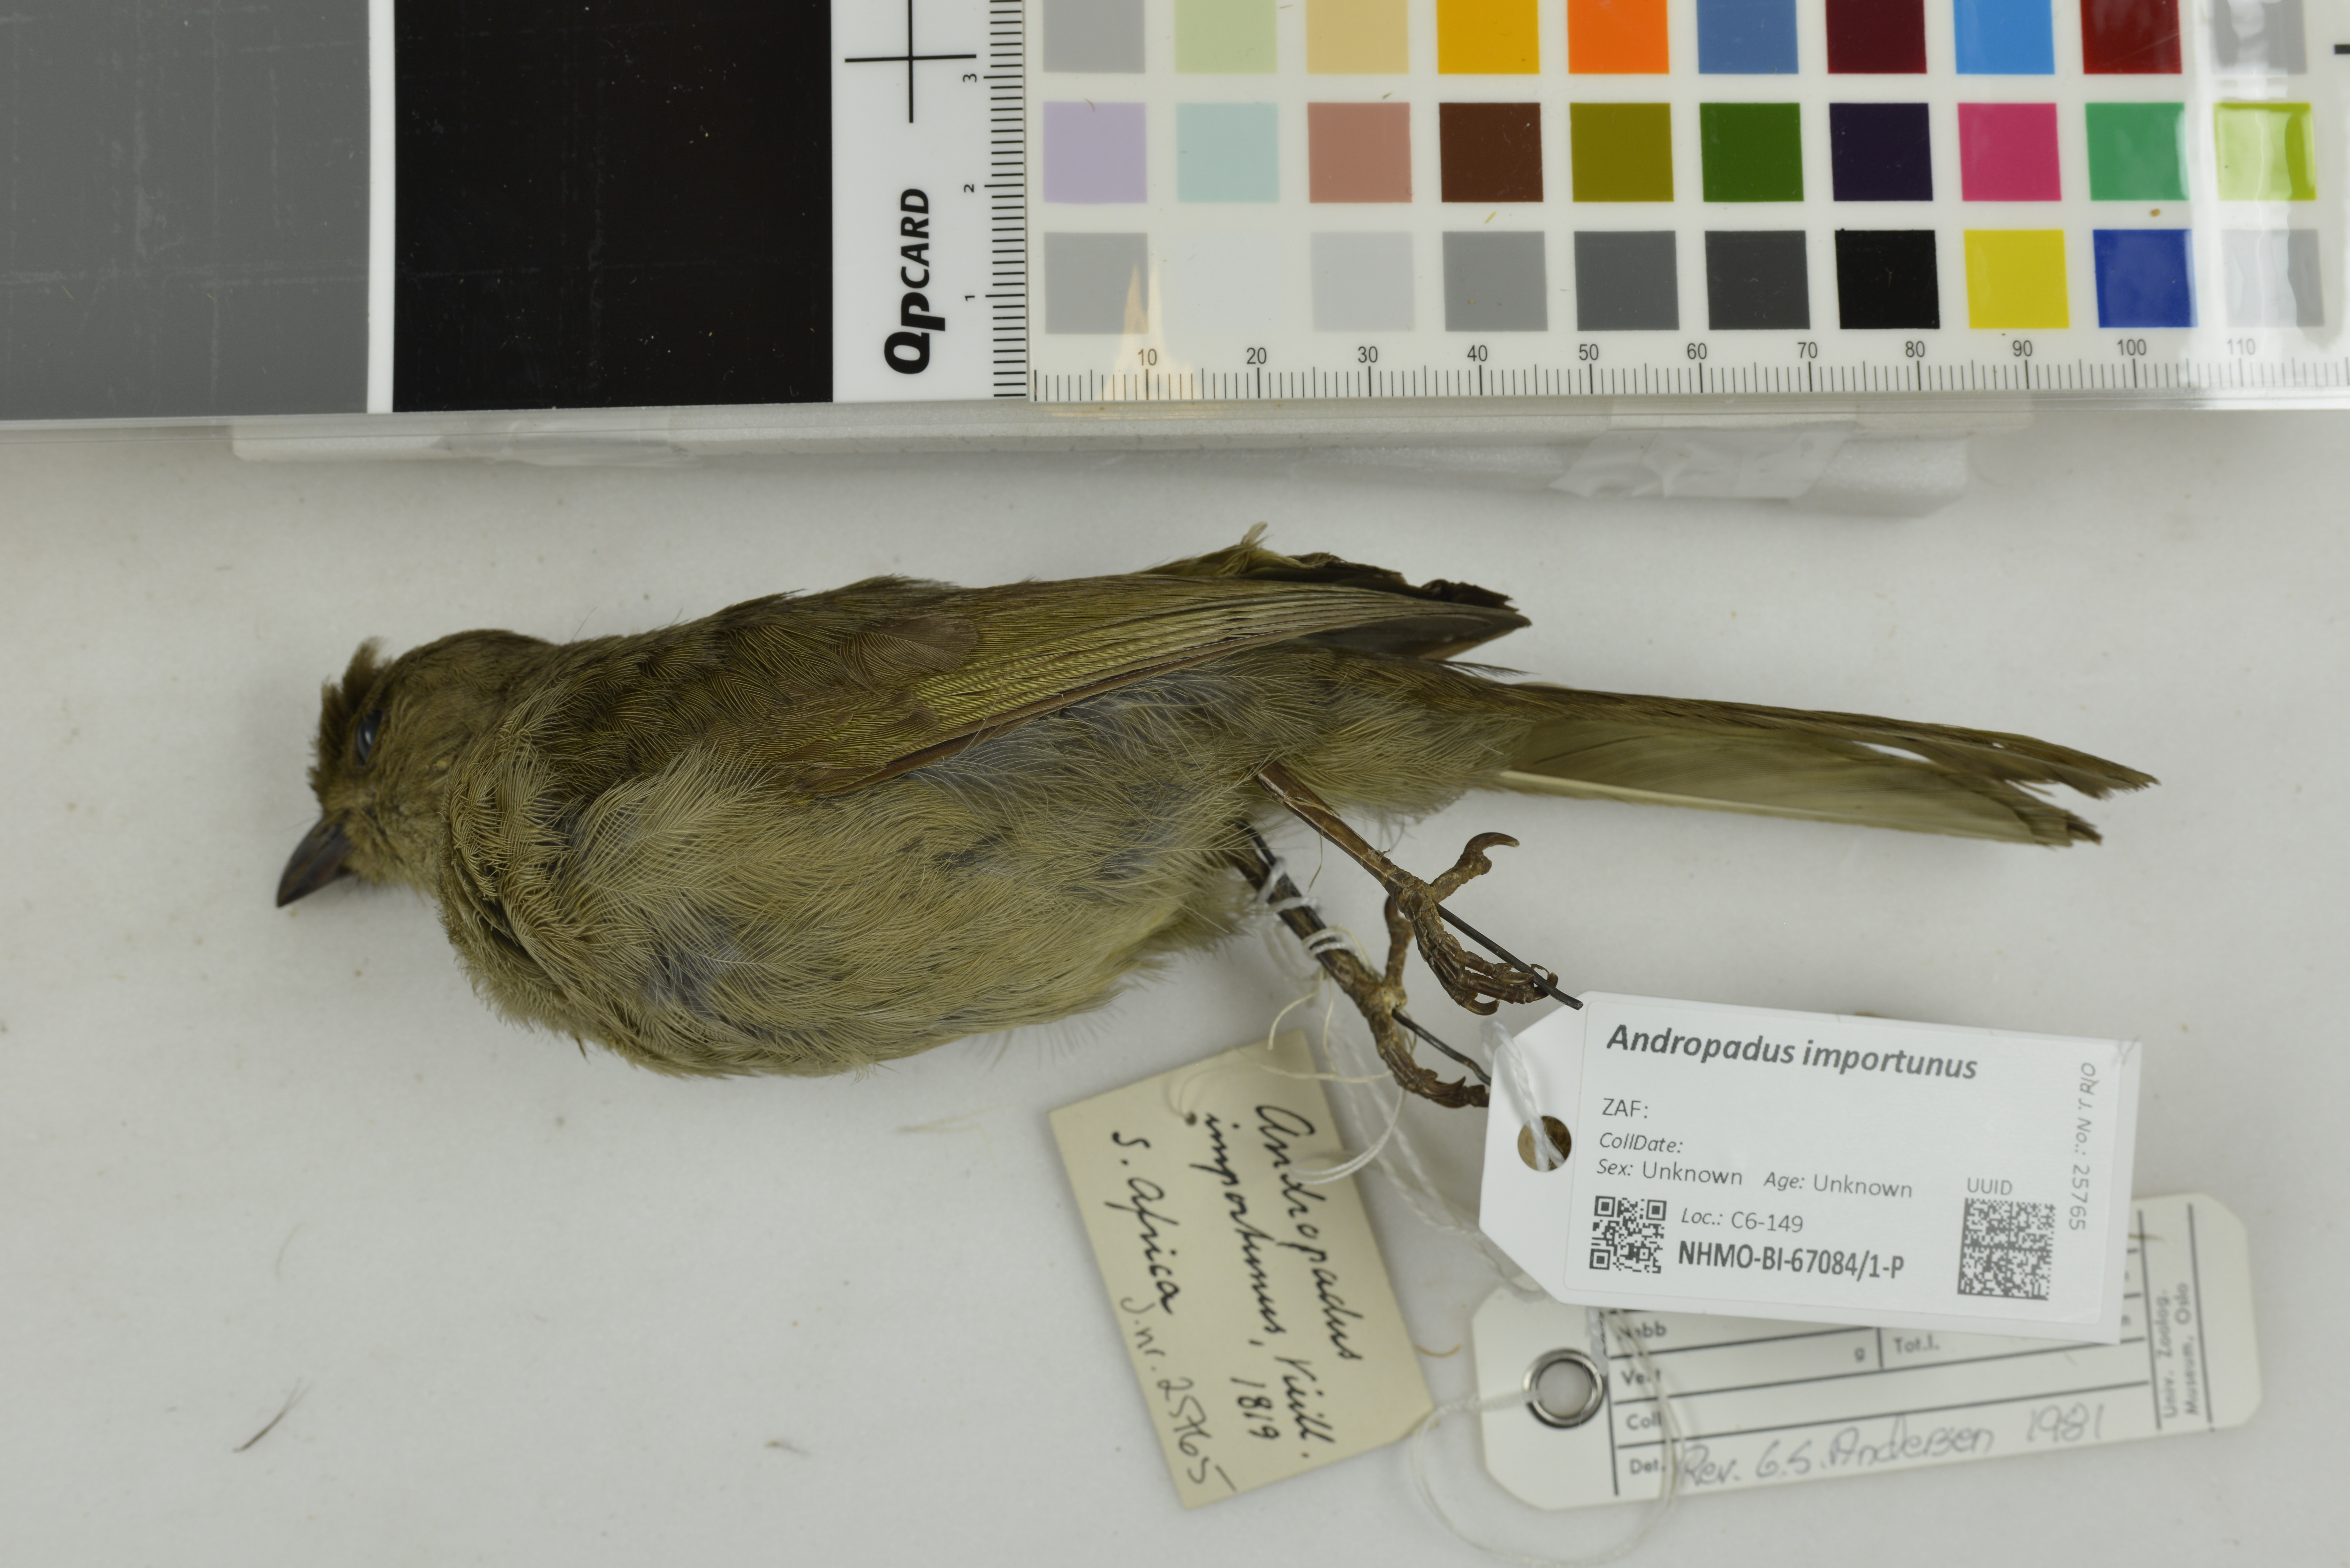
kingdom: Animalia
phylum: Chordata
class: Aves
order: Passeriformes
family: Pycnonotidae
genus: Andropadus
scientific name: Andropadus importunus
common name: Sombre greenbul
